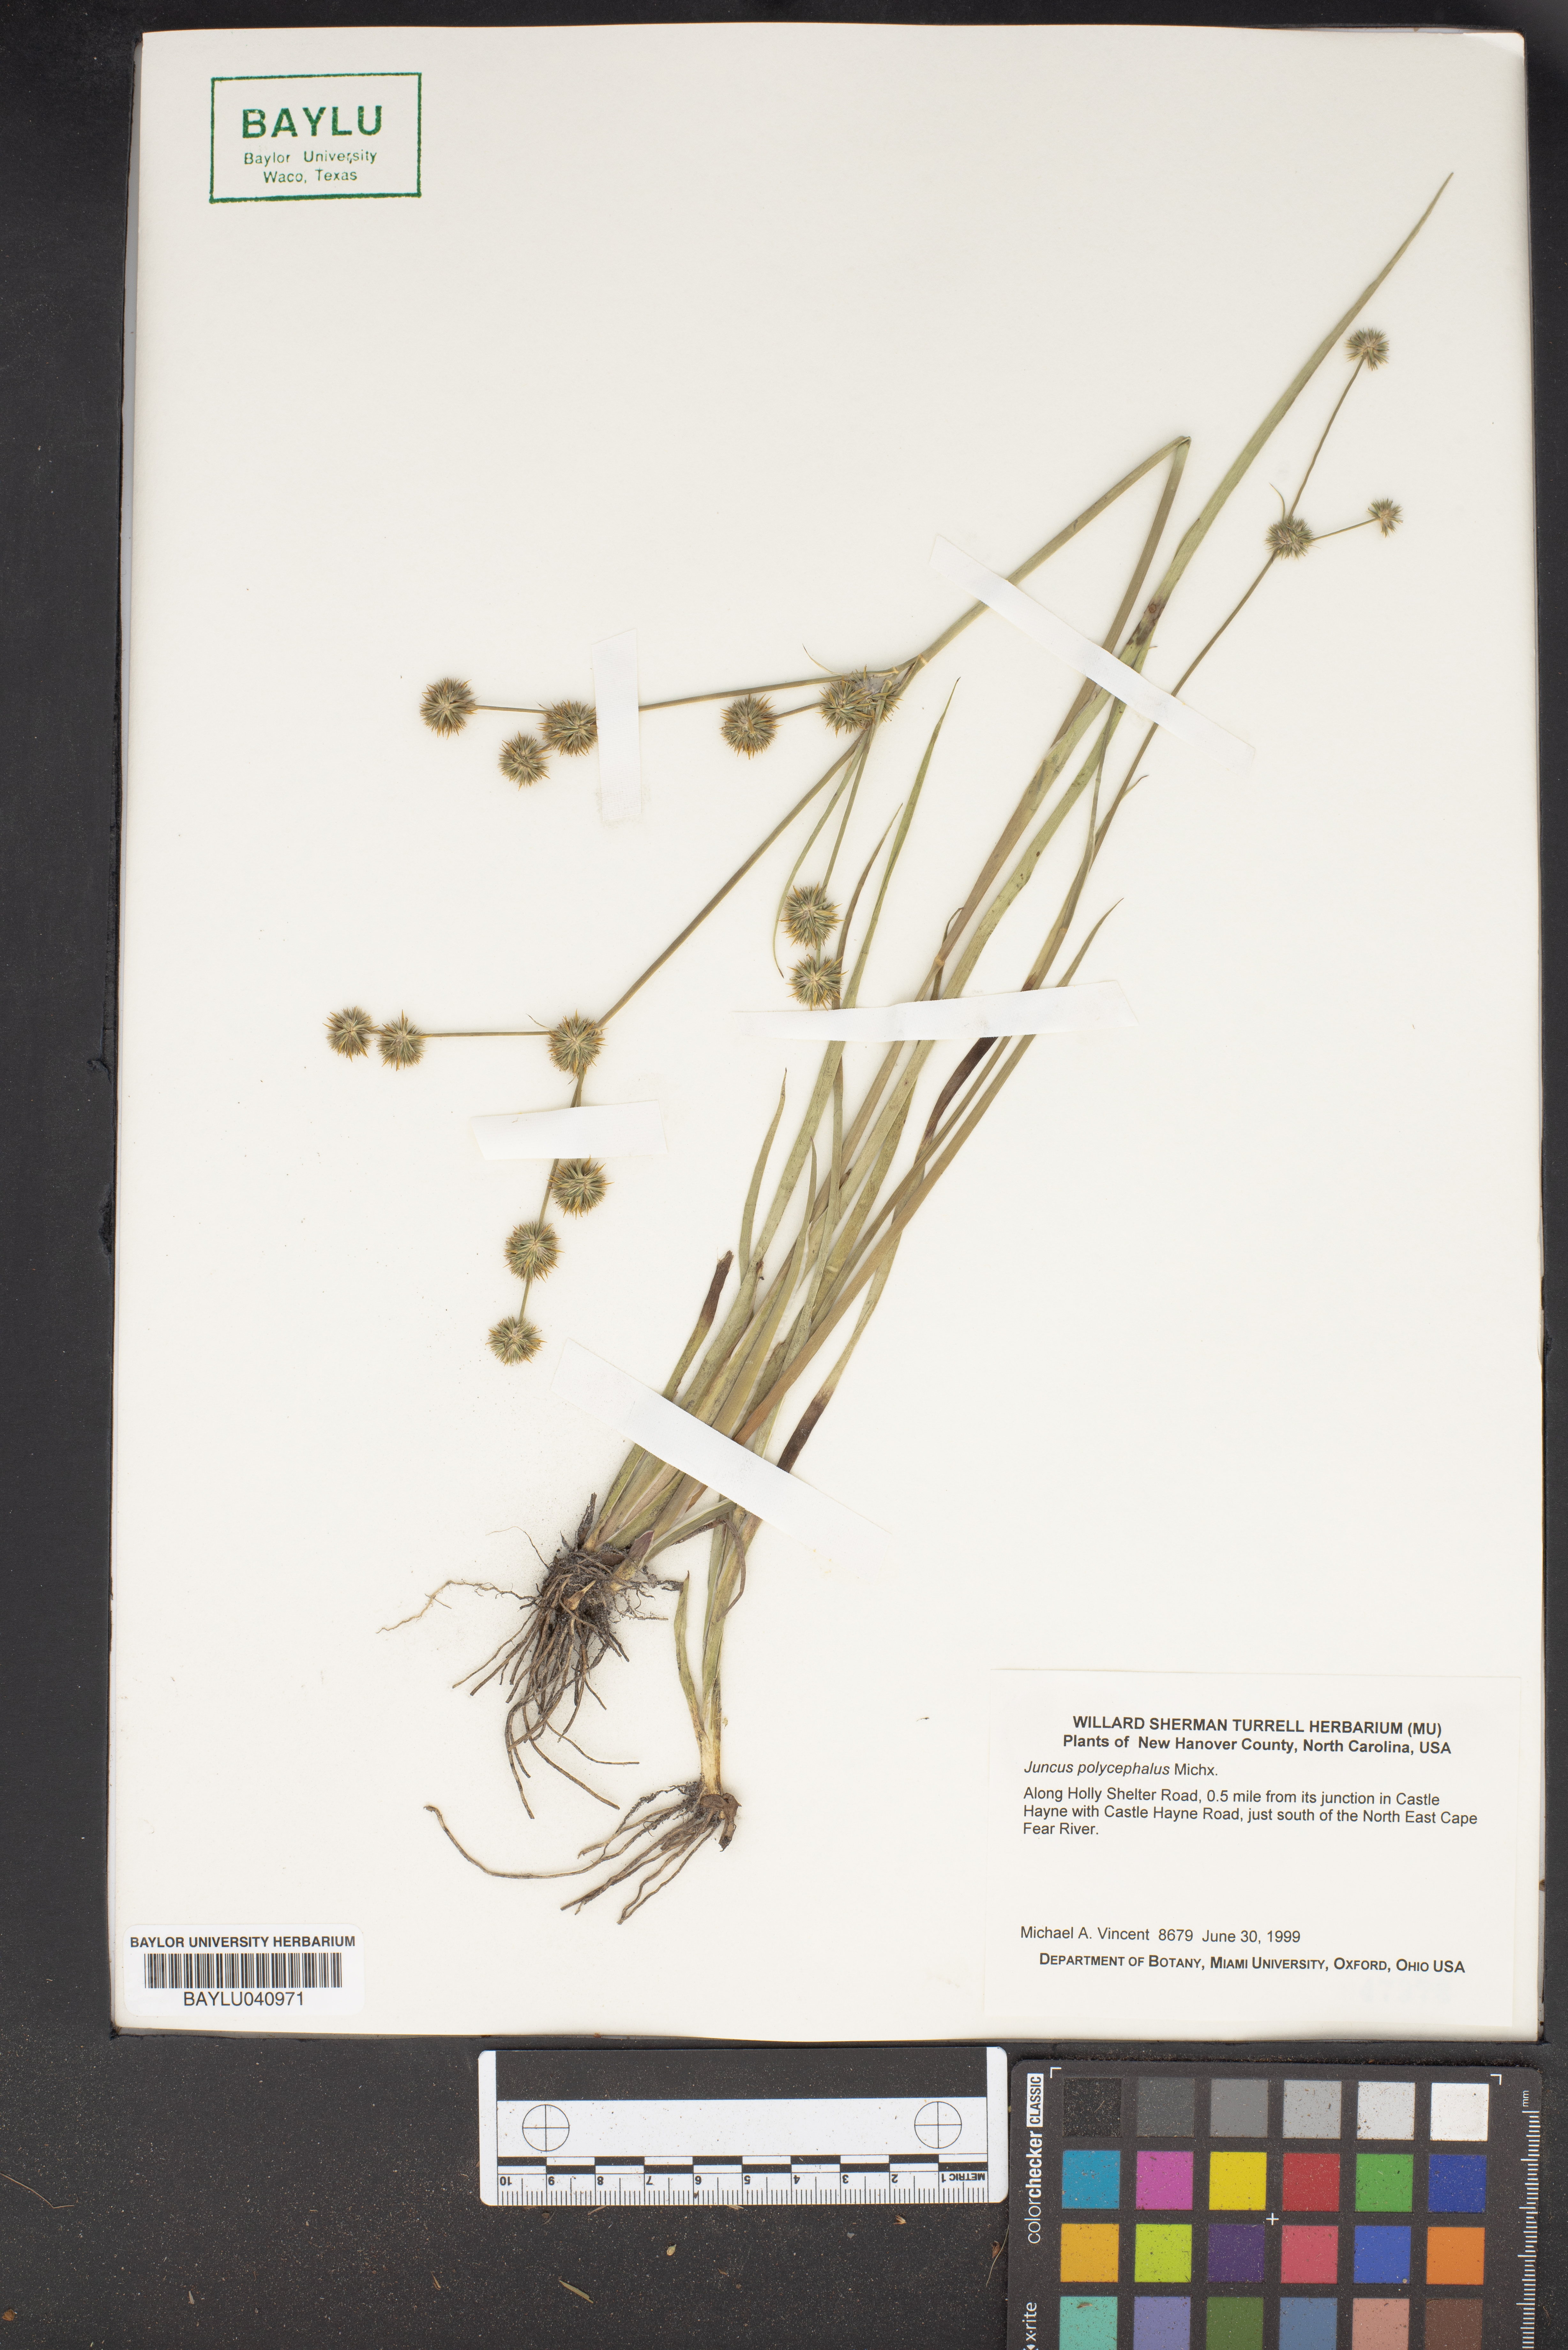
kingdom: Plantae
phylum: Tracheophyta
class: Liliopsida
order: Poales
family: Juncaceae
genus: Juncus
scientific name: Juncus polycephalus
